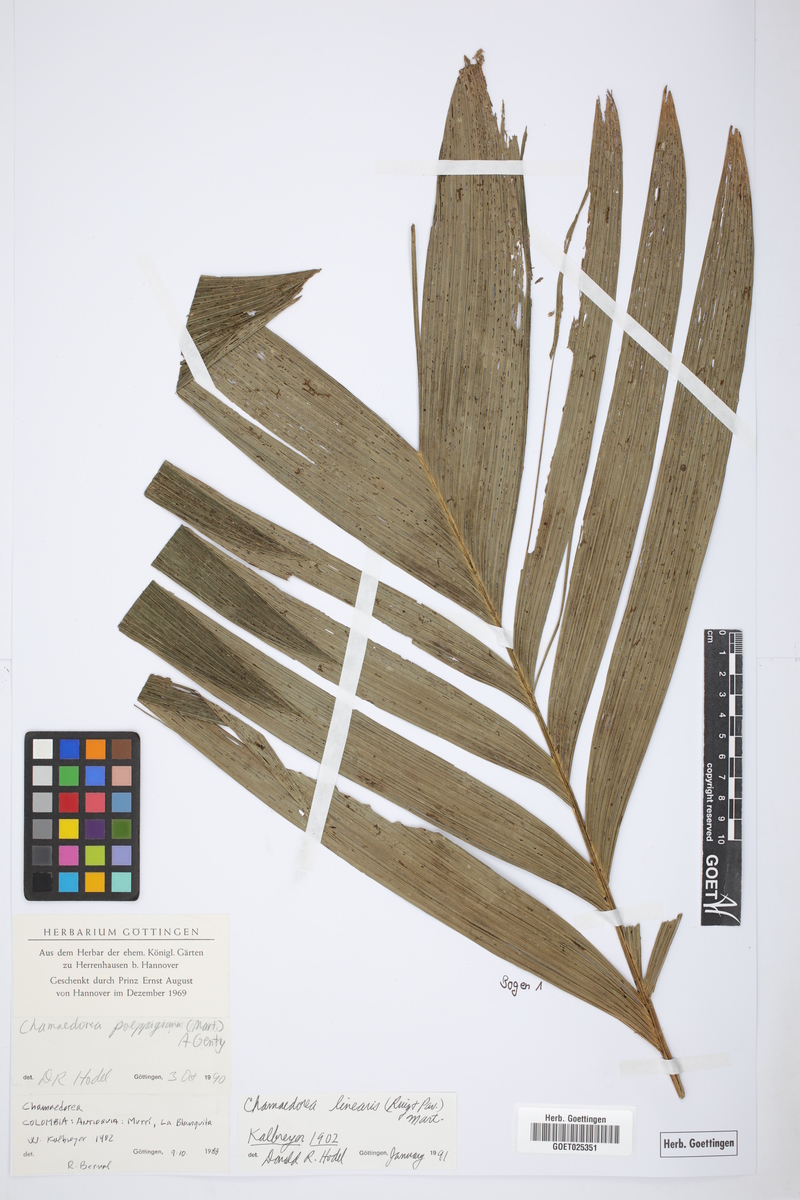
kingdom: Plantae
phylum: Tracheophyta
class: Liliopsida
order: Arecales
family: Arecaceae
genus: Chamaedorea
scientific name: Chamaedorea linearis
